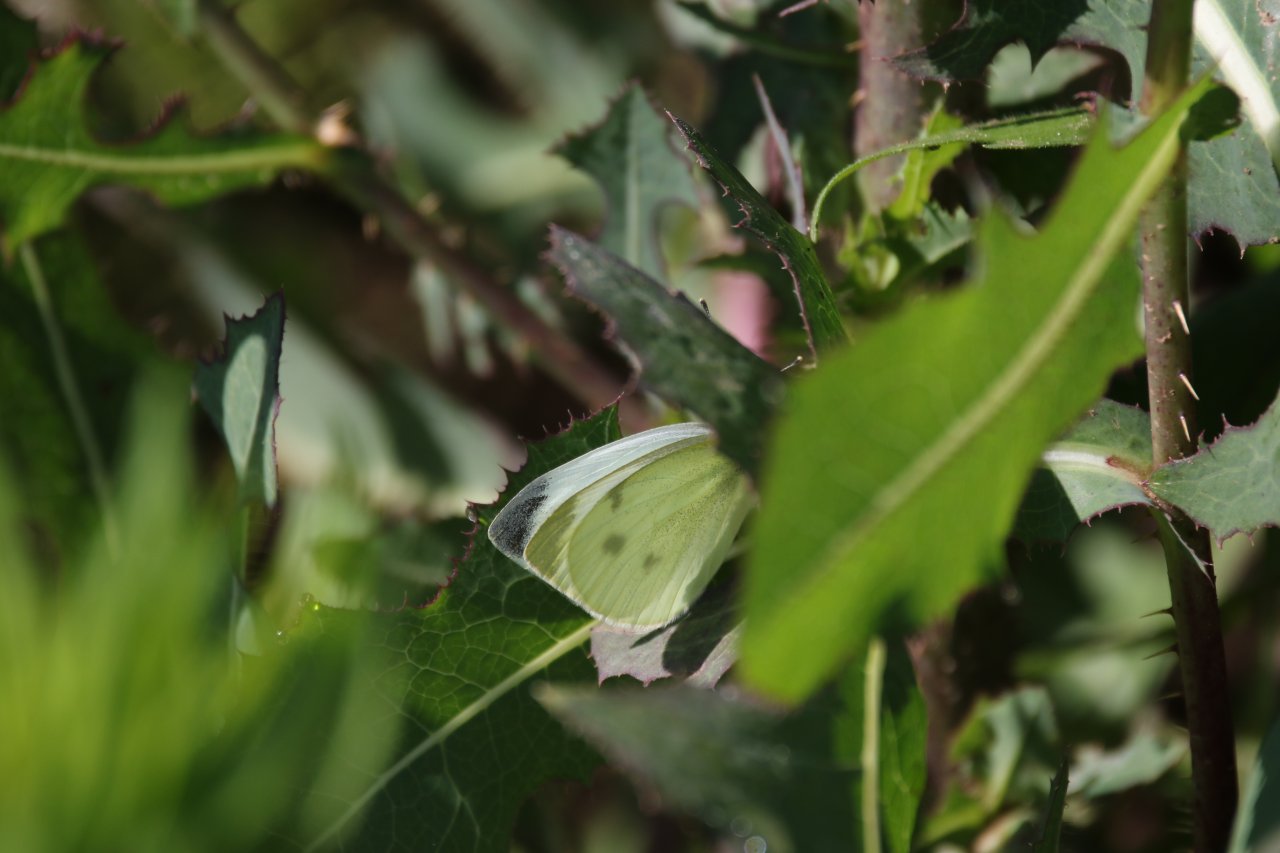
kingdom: Animalia
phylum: Arthropoda
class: Insecta
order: Lepidoptera
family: Pieridae
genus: Pieris
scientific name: Pieris rapae
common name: Cabbage White
